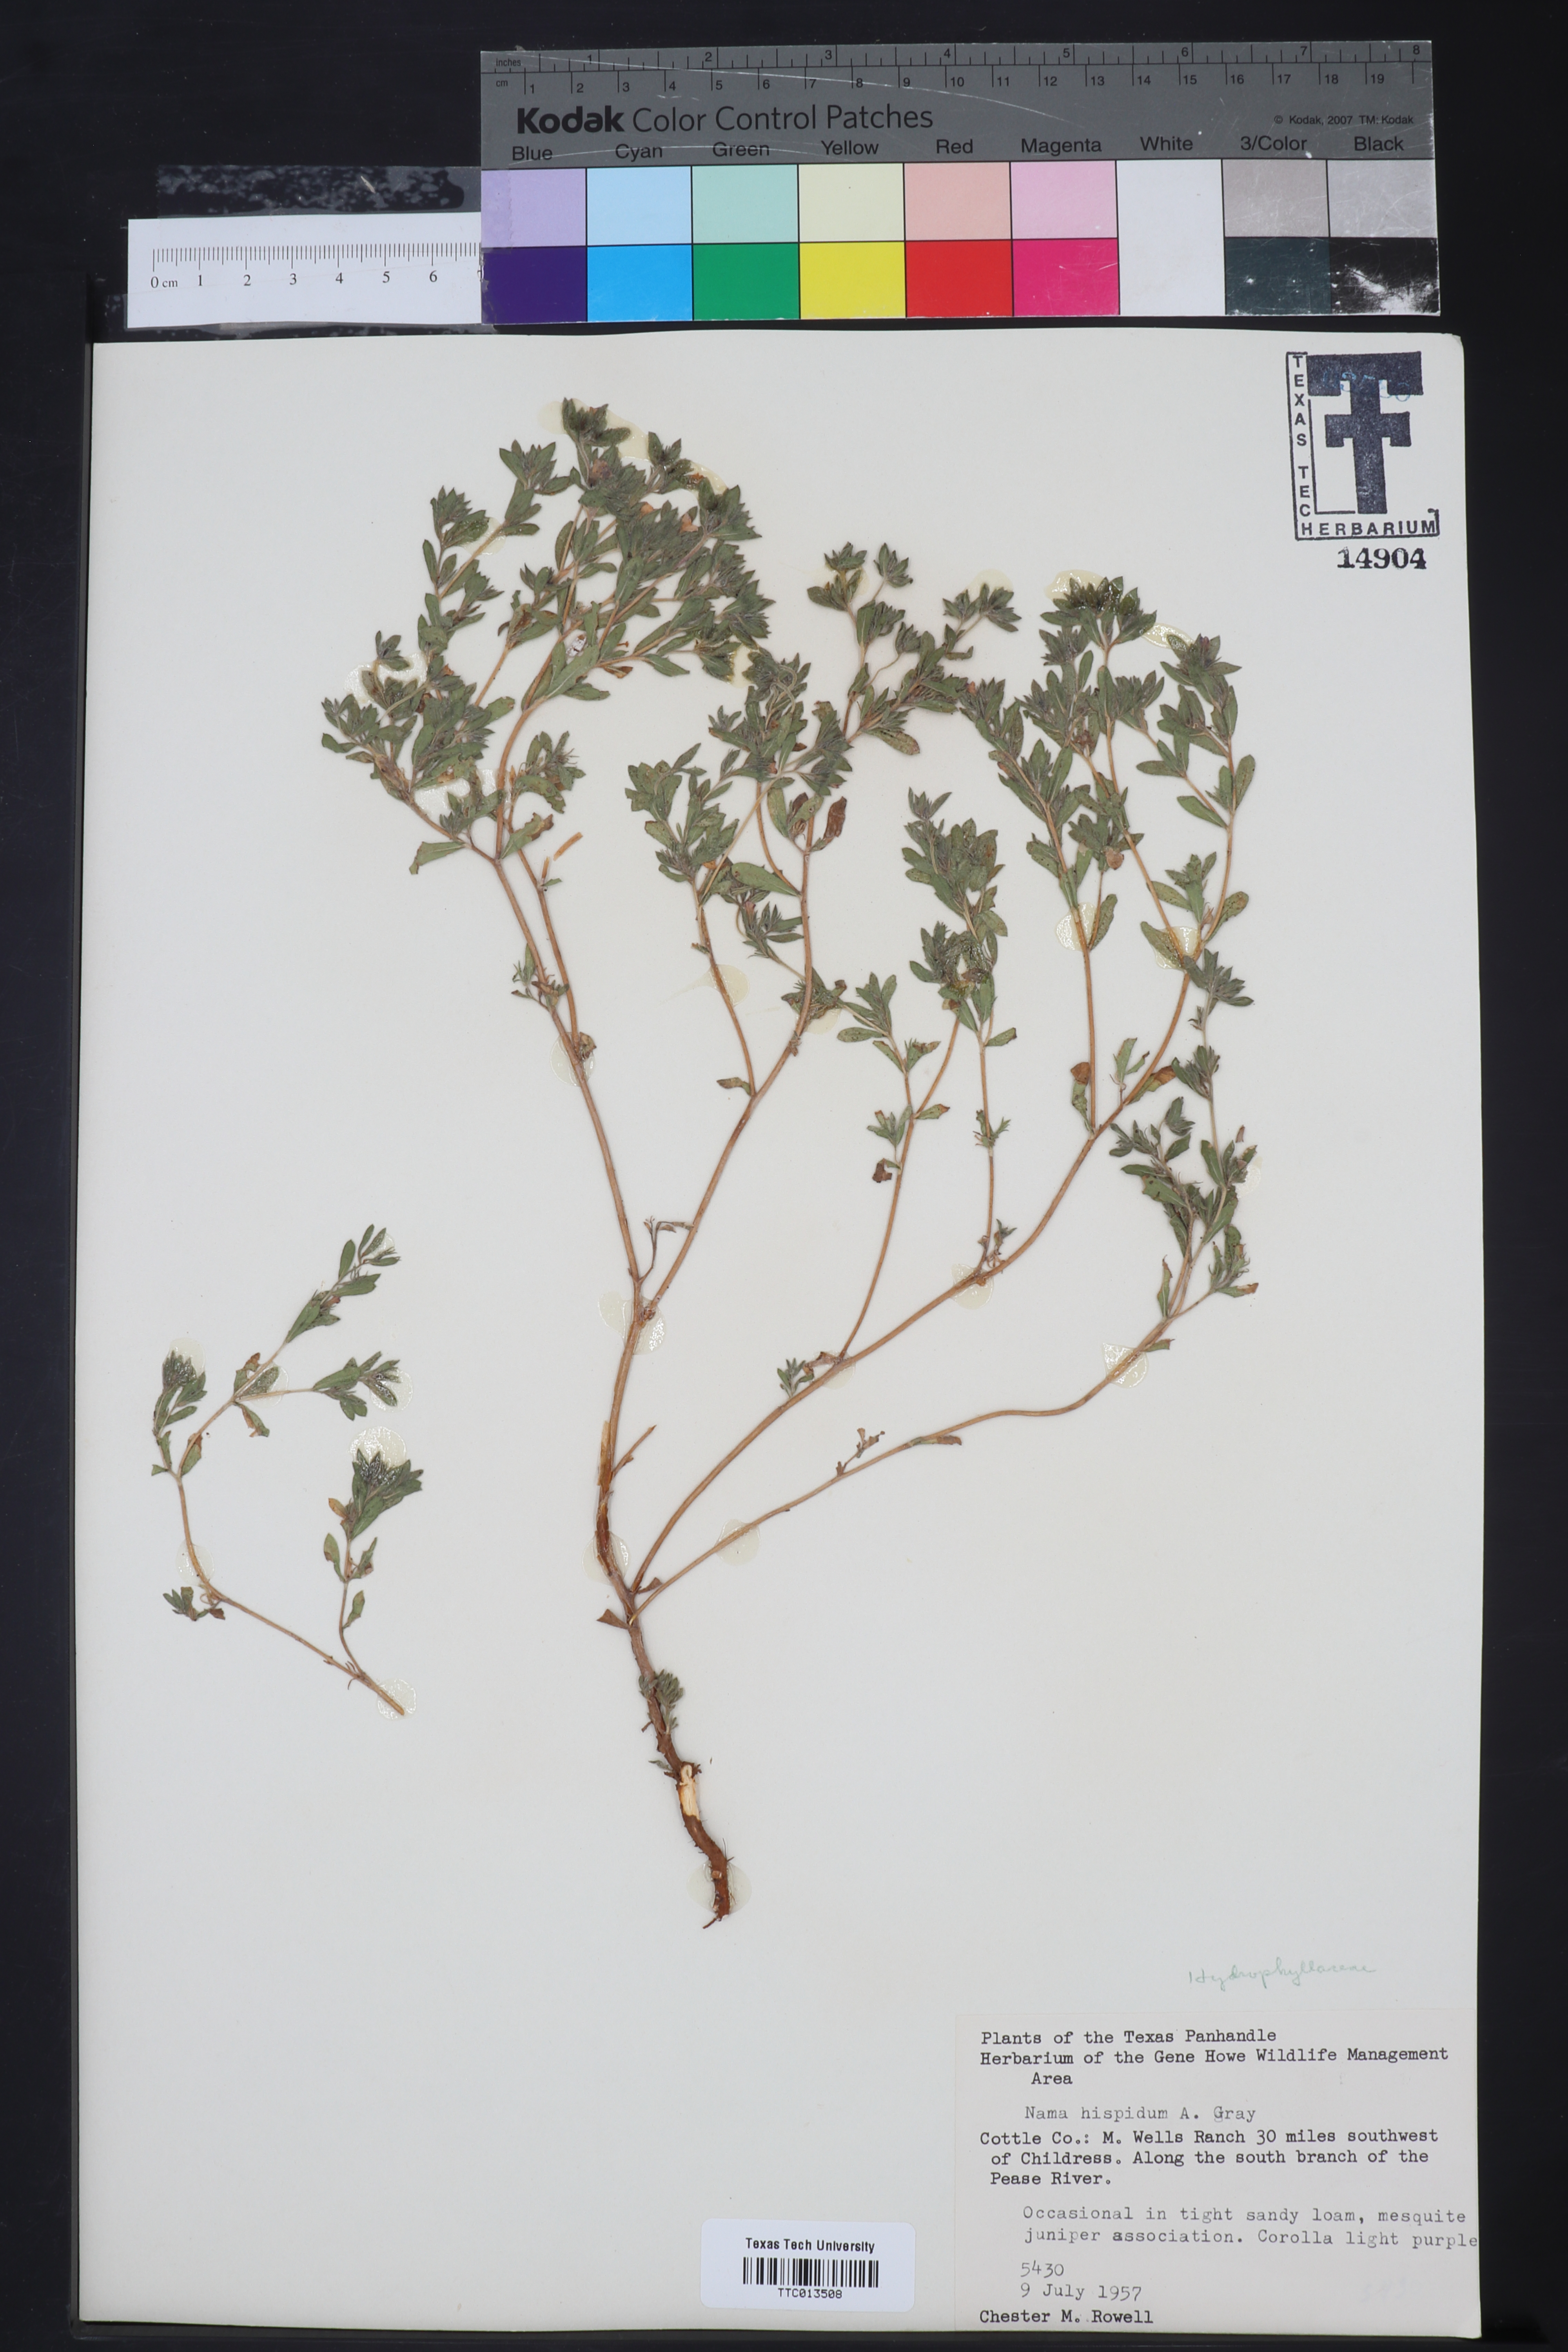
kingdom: Plantae
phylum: Tracheophyta
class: Magnoliopsida
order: Boraginales
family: Namaceae
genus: Nama
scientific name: Nama hispida
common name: Bristly nama
